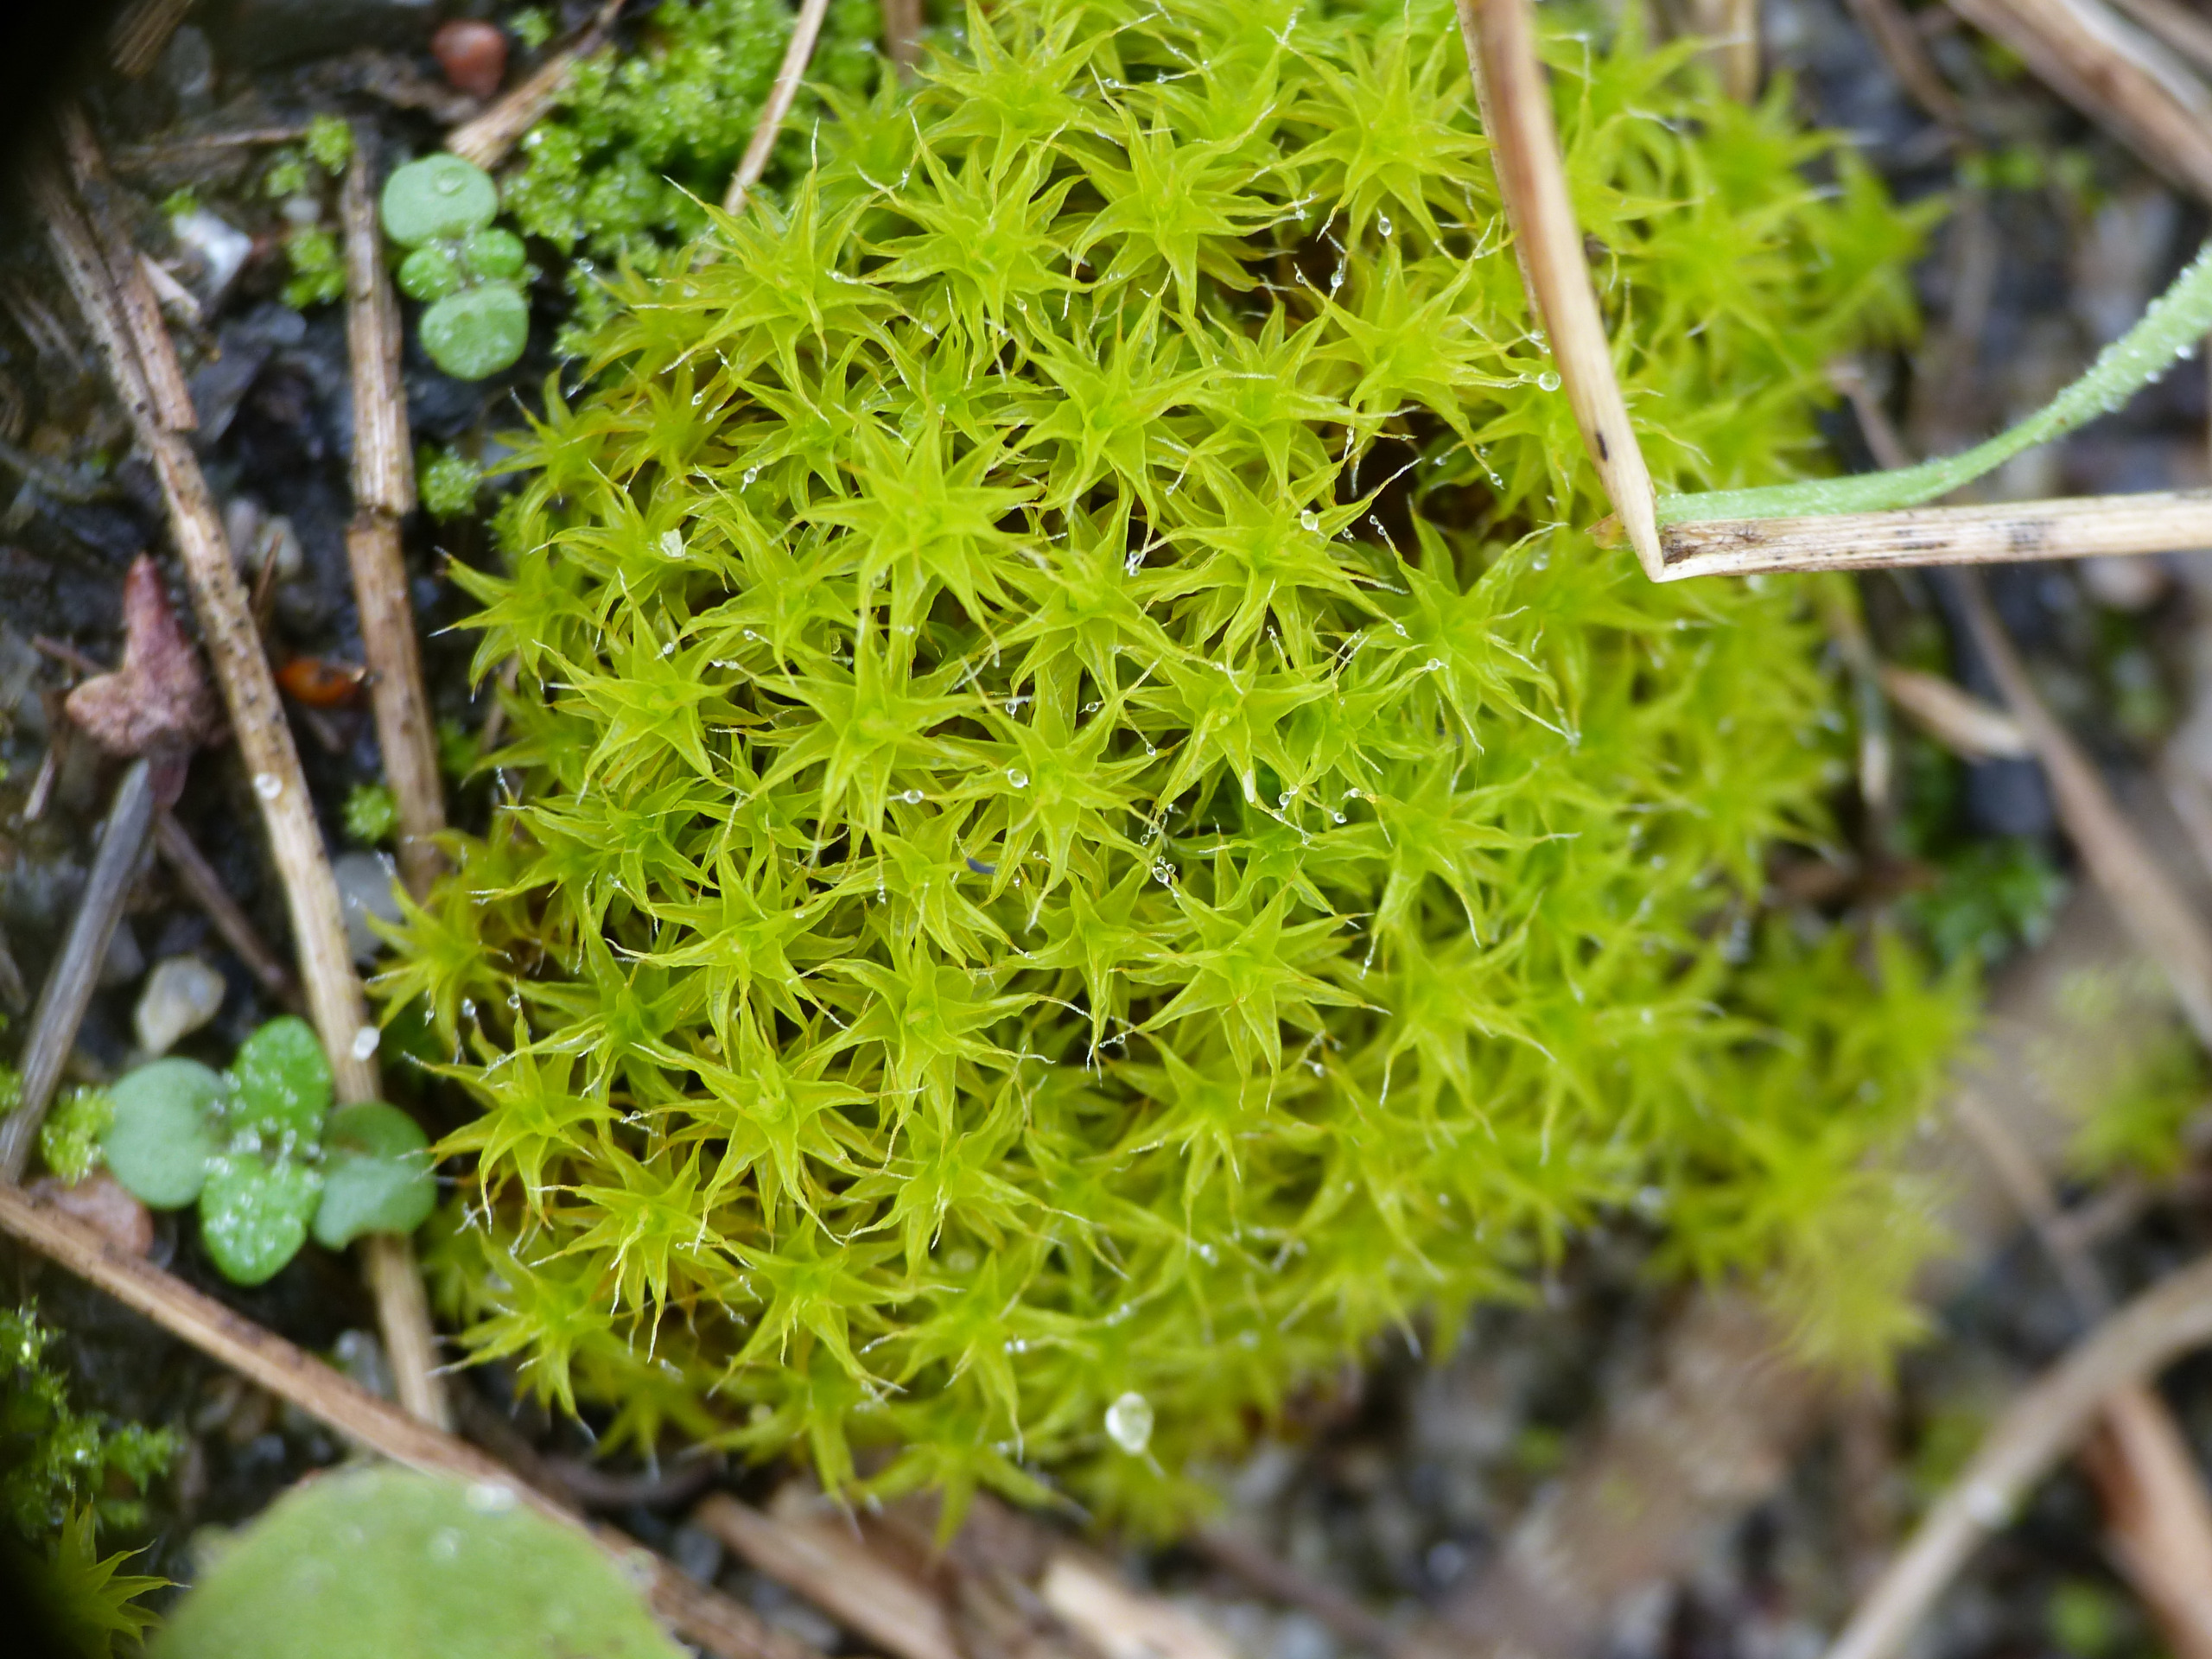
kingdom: Plantae
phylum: Bryophyta
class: Bryopsida
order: Pottiales
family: Pottiaceae
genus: Syntrichia
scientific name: Syntrichia ruralis
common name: Spidsbladet hårstjerne
